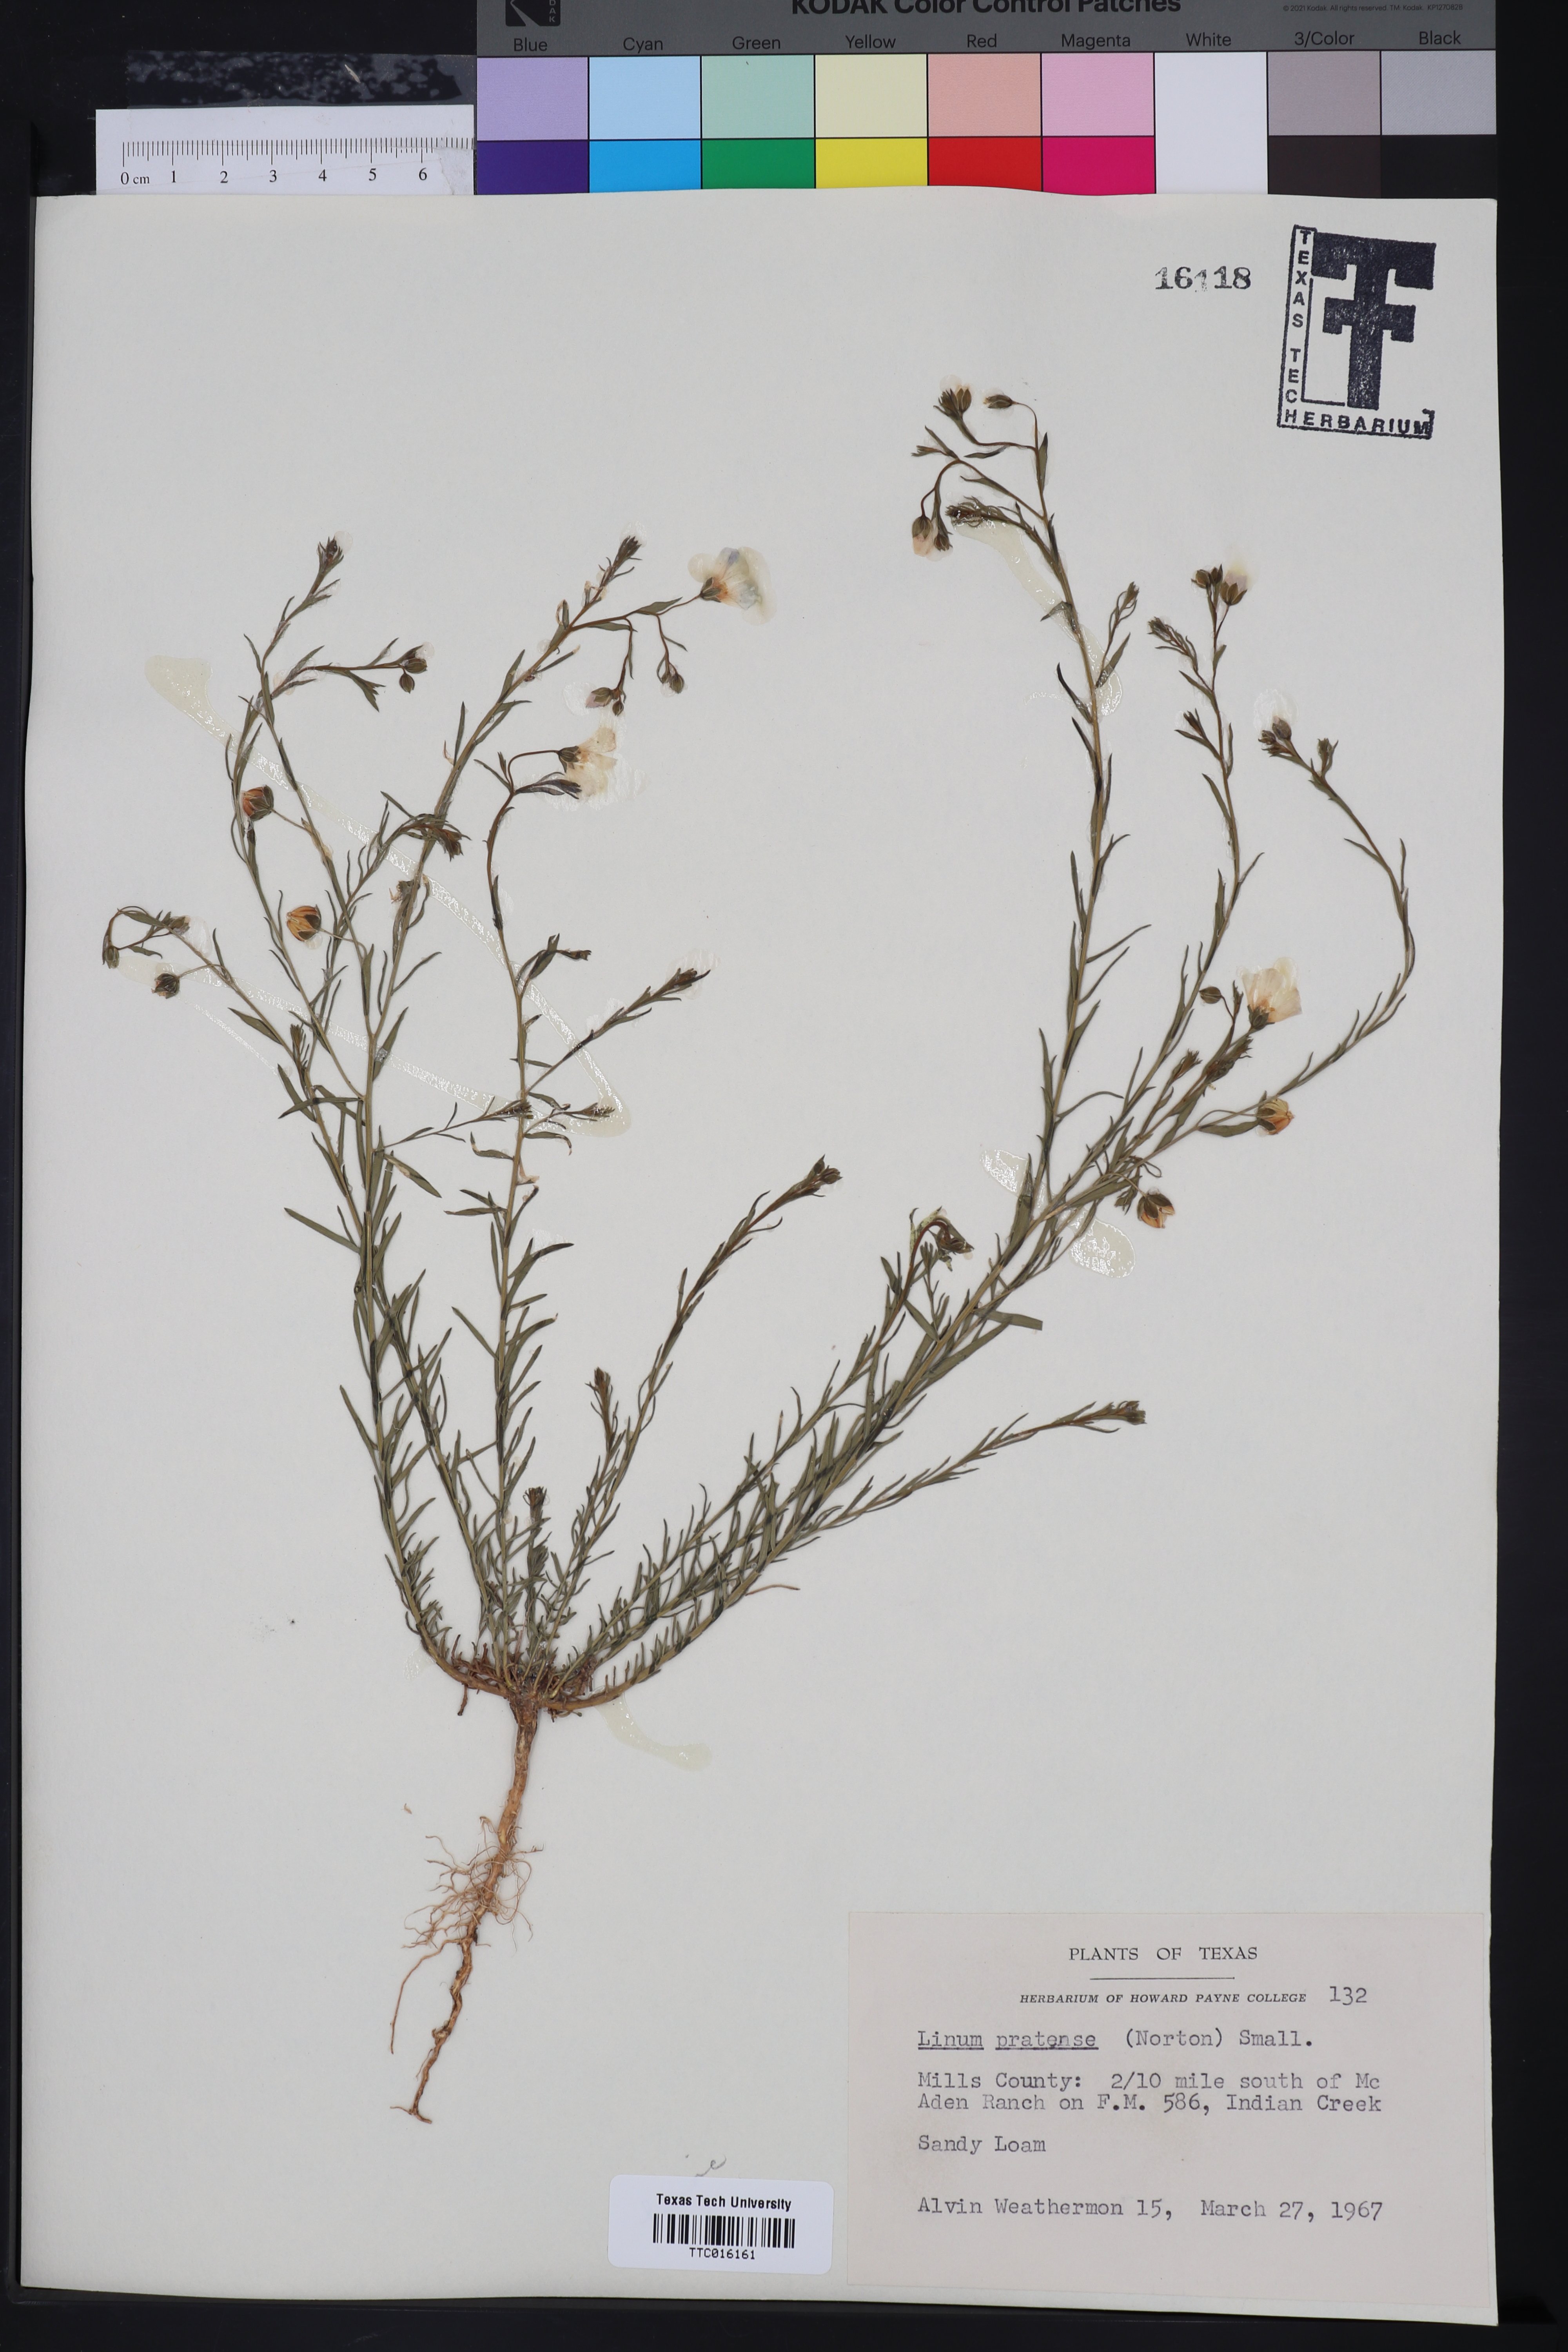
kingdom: Plantae
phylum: Tracheophyta
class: Magnoliopsida
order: Malpighiales
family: Linaceae
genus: Linum
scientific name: Linum pratense
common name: Norton's flax
